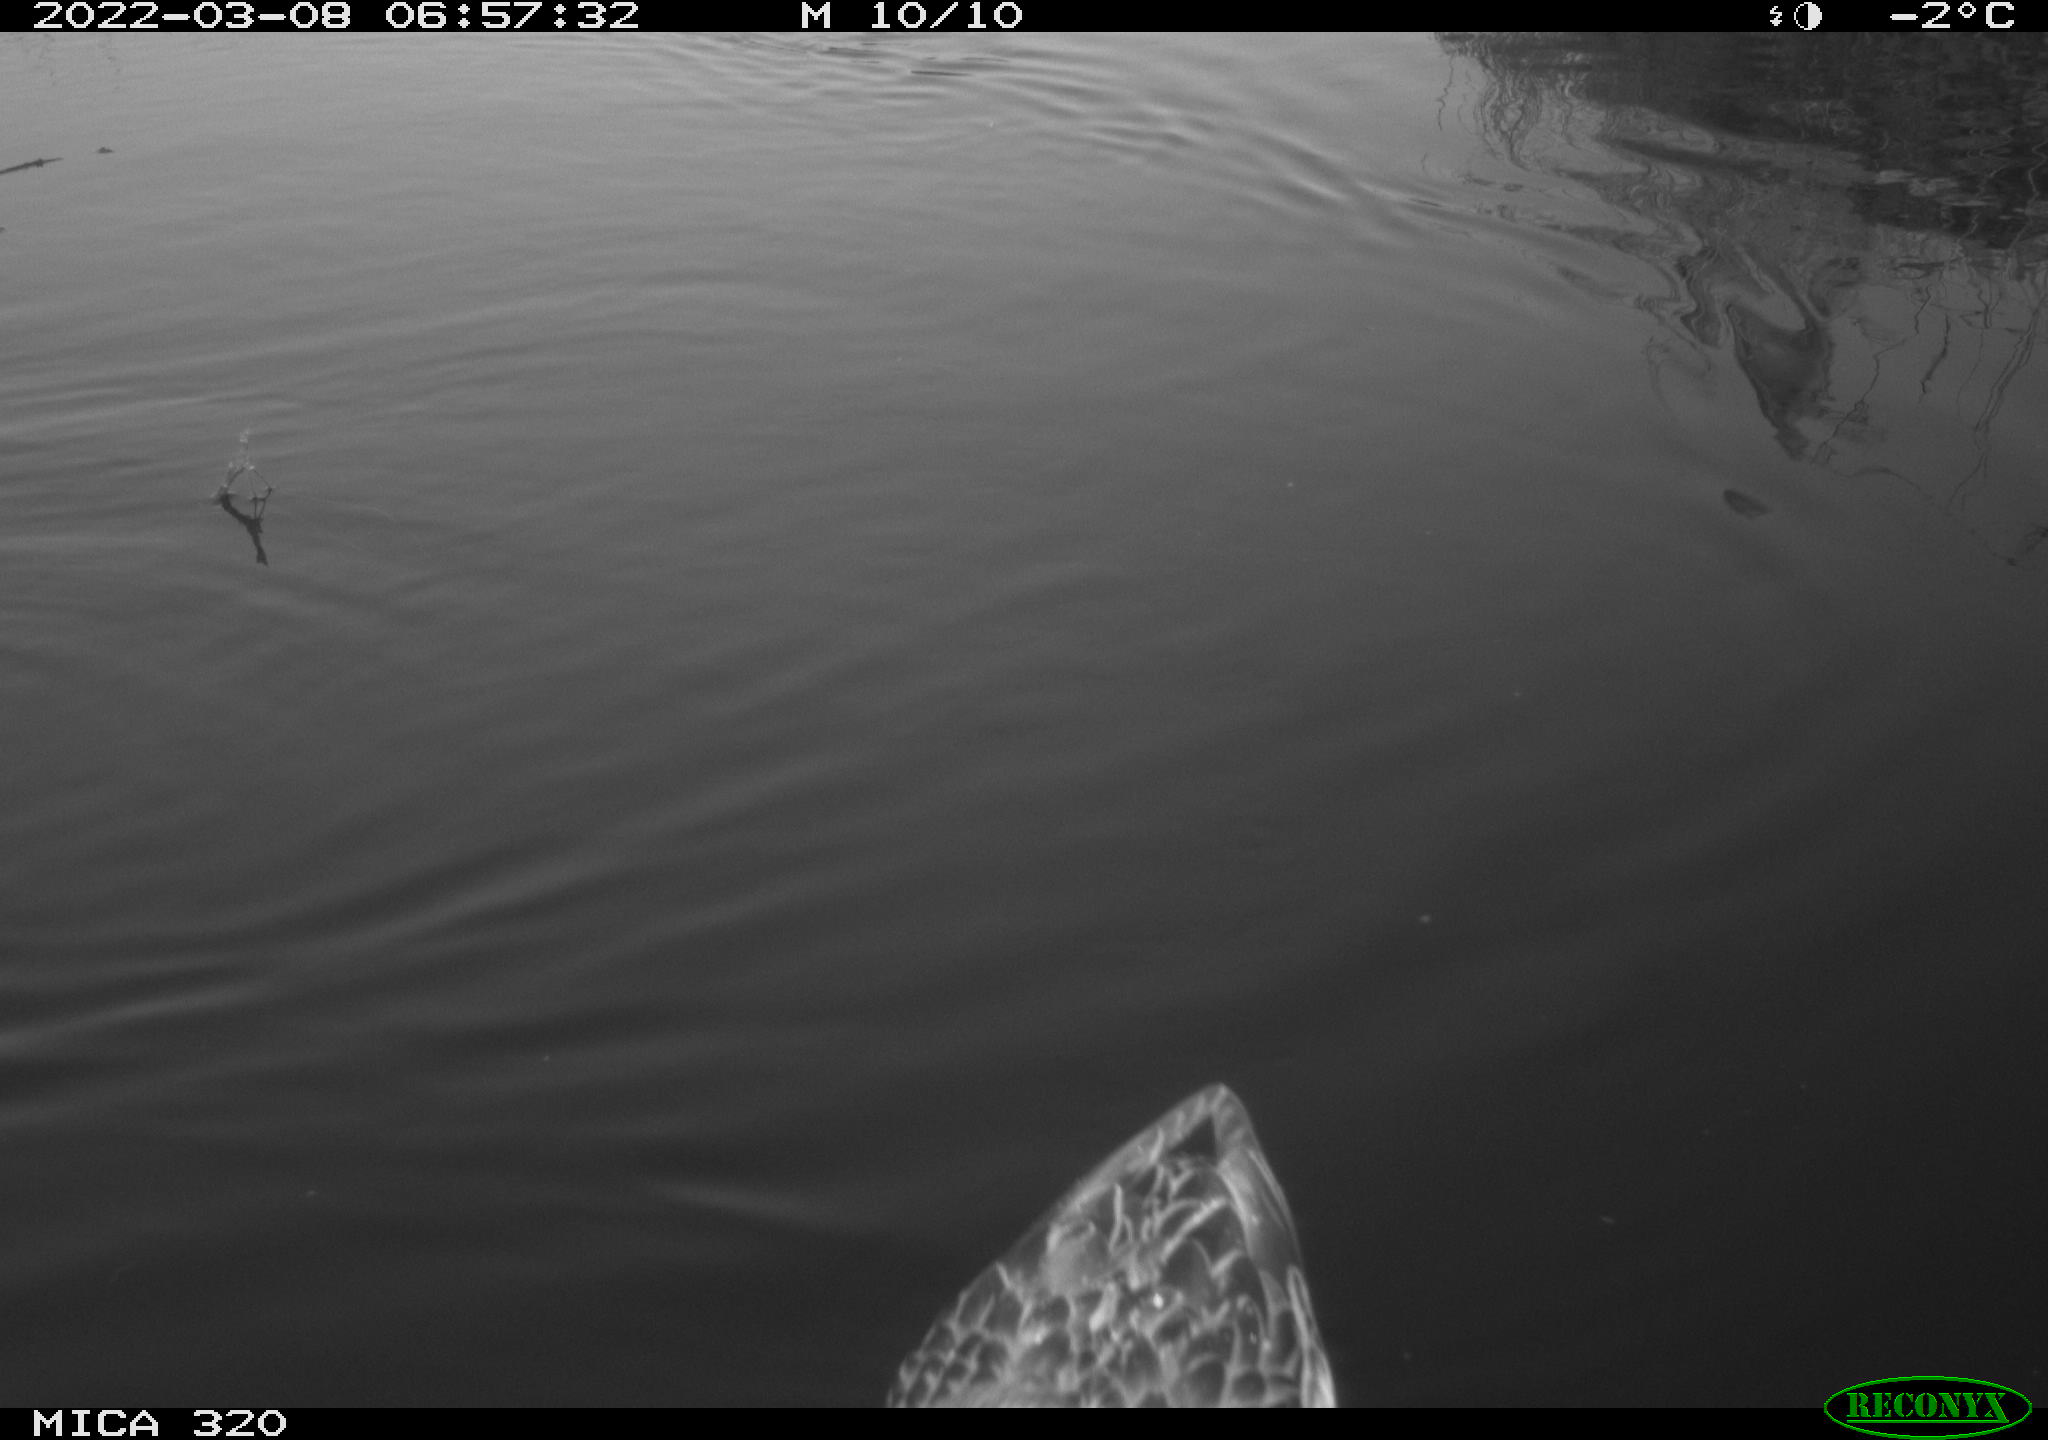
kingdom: Animalia
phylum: Chordata
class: Aves
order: Anseriformes
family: Anatidae
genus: Anas
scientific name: Anas platyrhynchos
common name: Mallard
